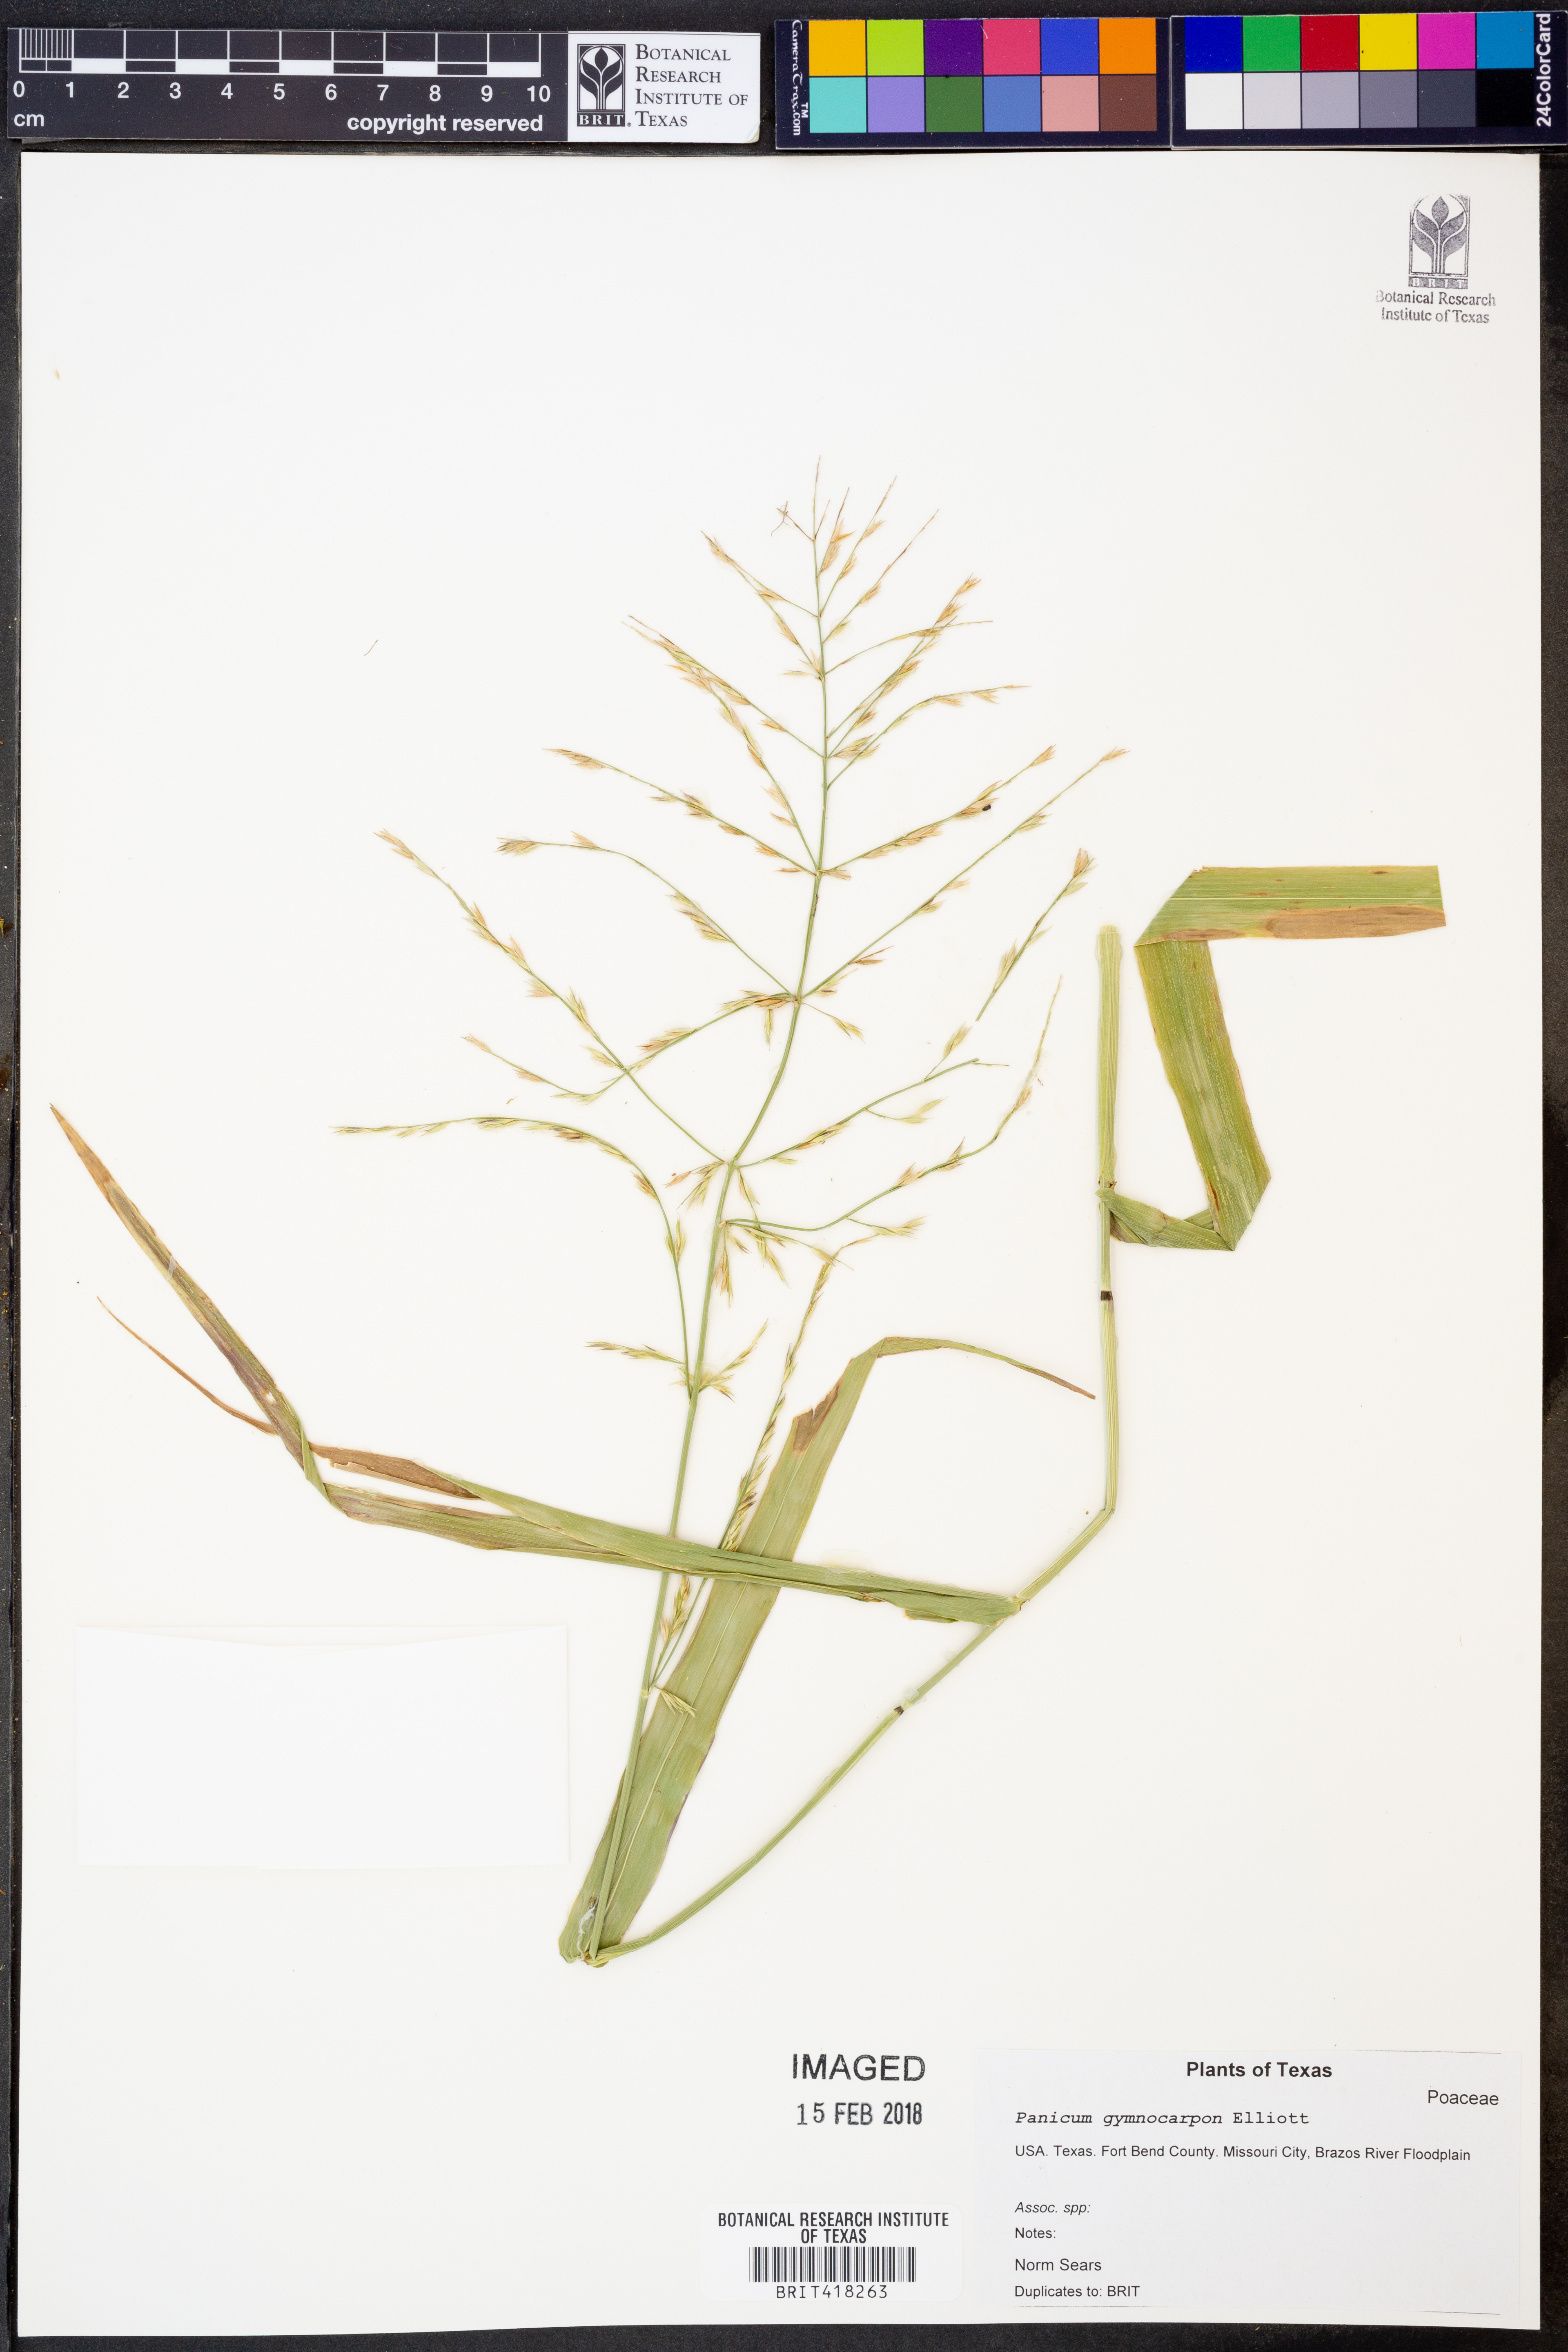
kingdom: Plantae
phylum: Tracheophyta
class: Liliopsida
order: Poales
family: Poaceae
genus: Panicum
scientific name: Panicum gymnocarpon
